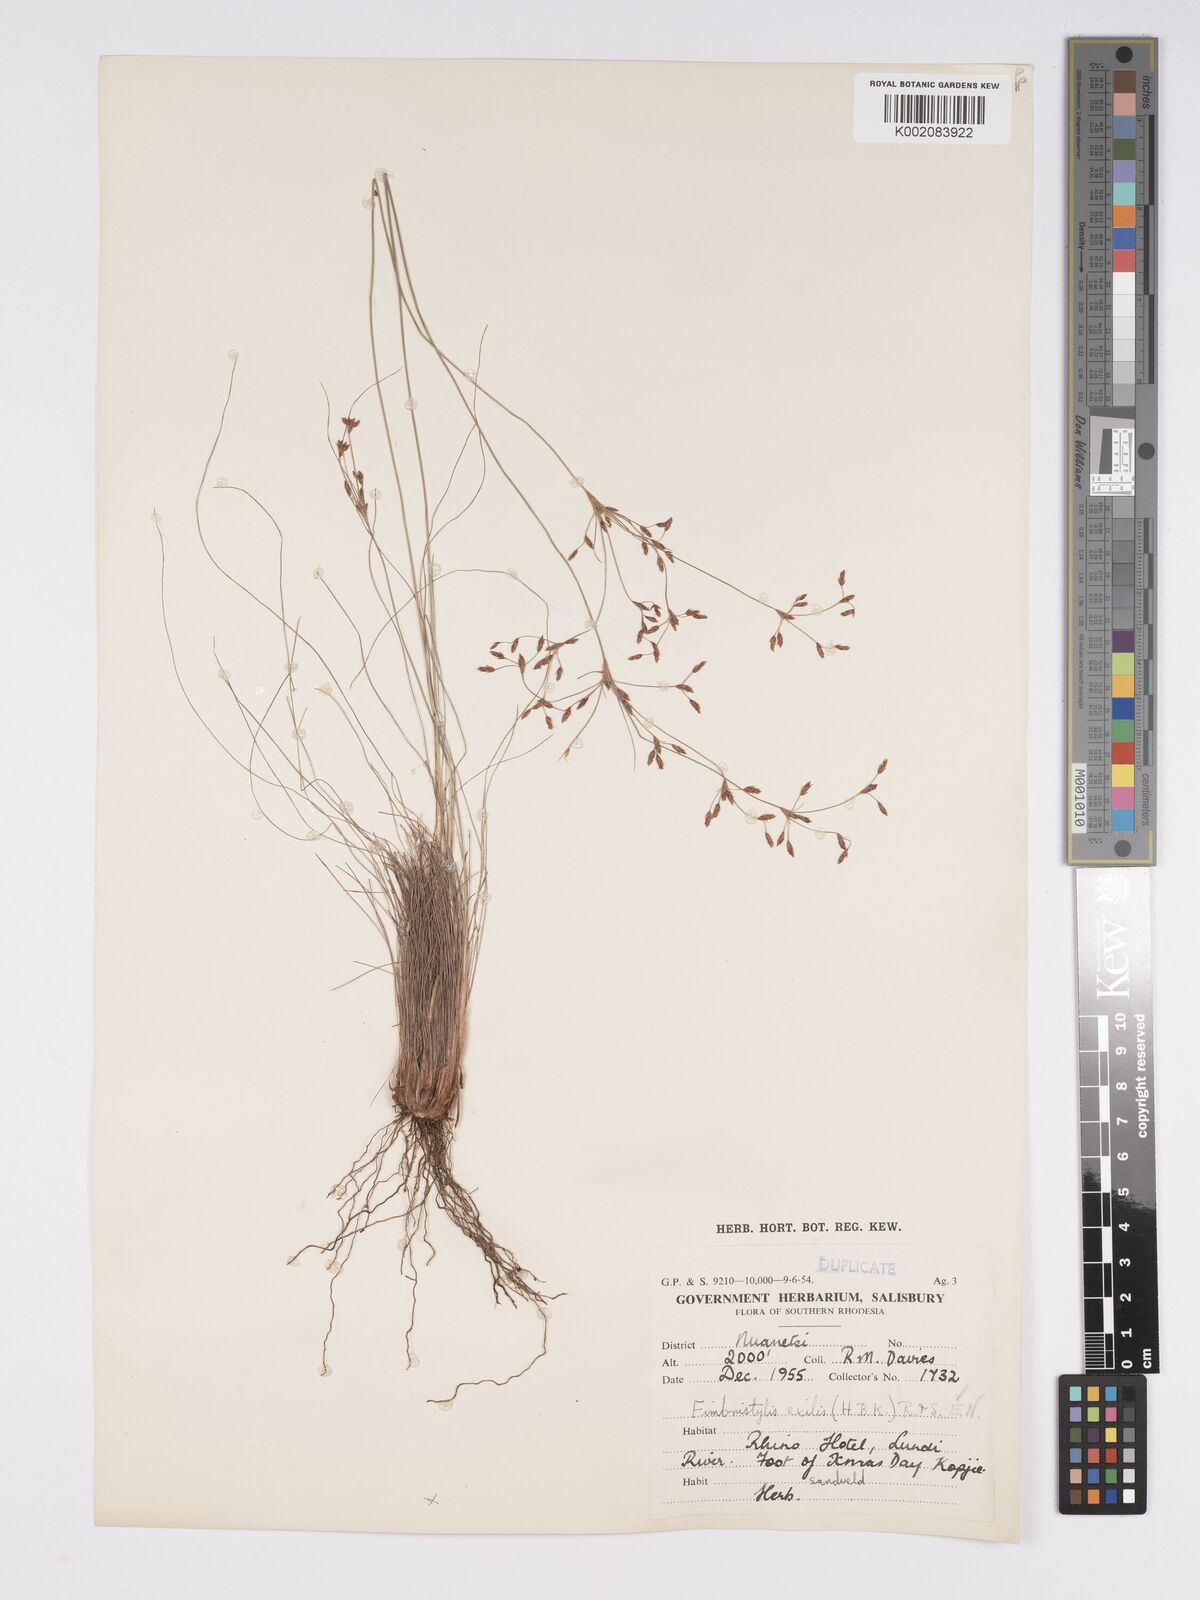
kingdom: Plantae
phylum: Tracheophyta
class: Liliopsida
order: Poales
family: Cyperaceae
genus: Bulbostylis
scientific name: Bulbostylis hispidula
